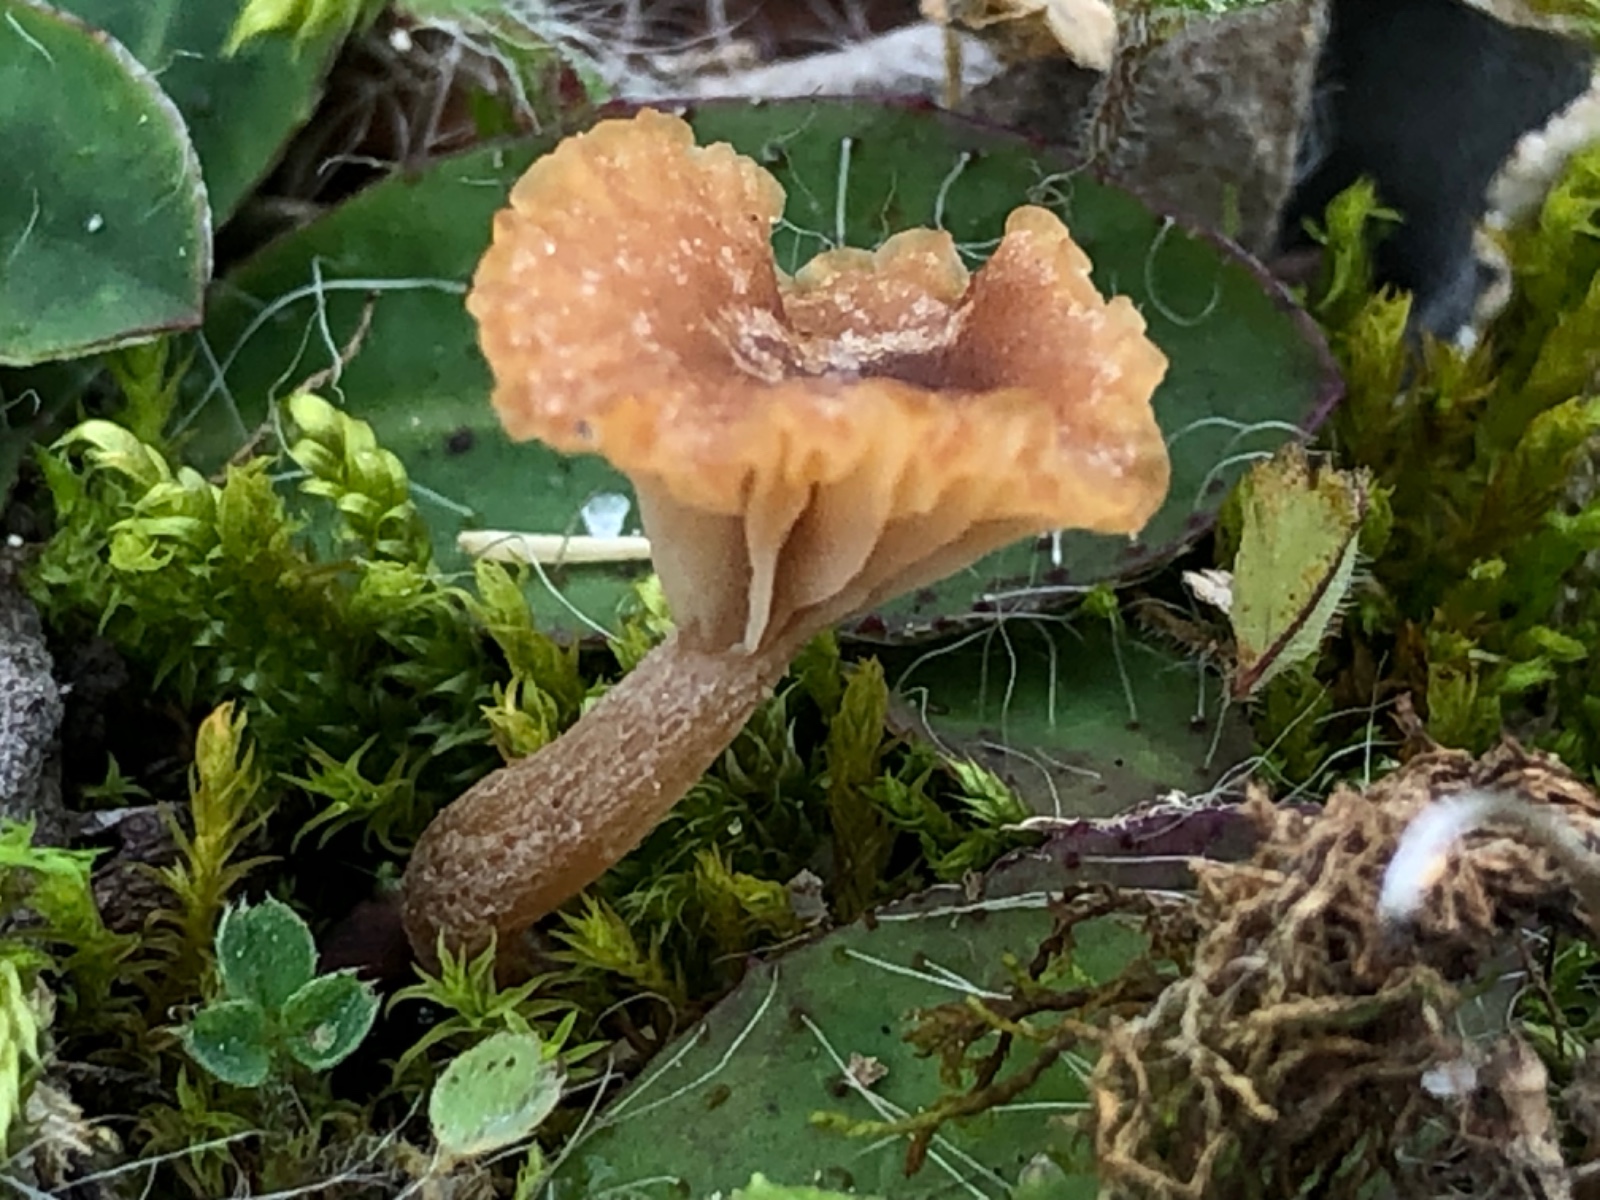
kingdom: Fungi
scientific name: Fungi
